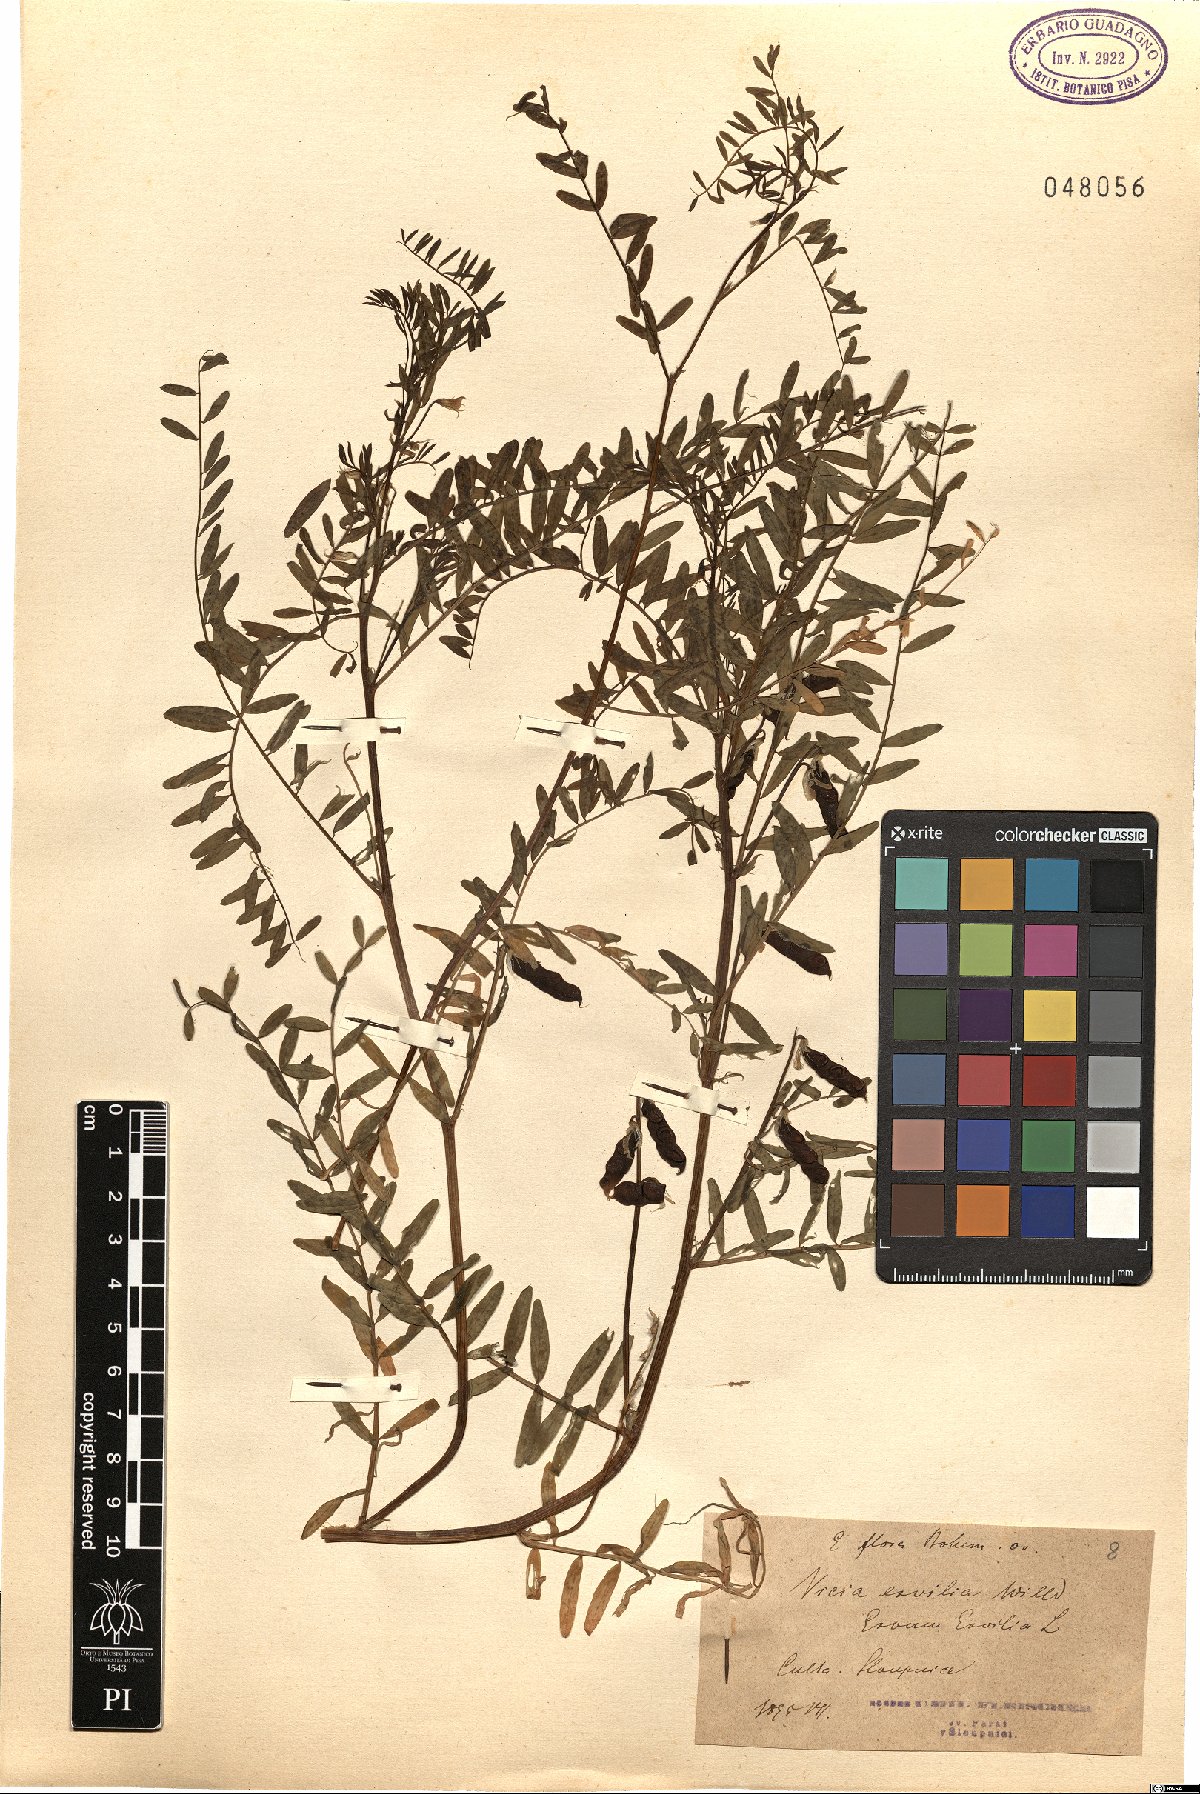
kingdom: Plantae
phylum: Tracheophyta
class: Magnoliopsida
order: Fabales
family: Fabaceae
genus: Vicia
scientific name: Vicia ervilia
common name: Bitter vetch
